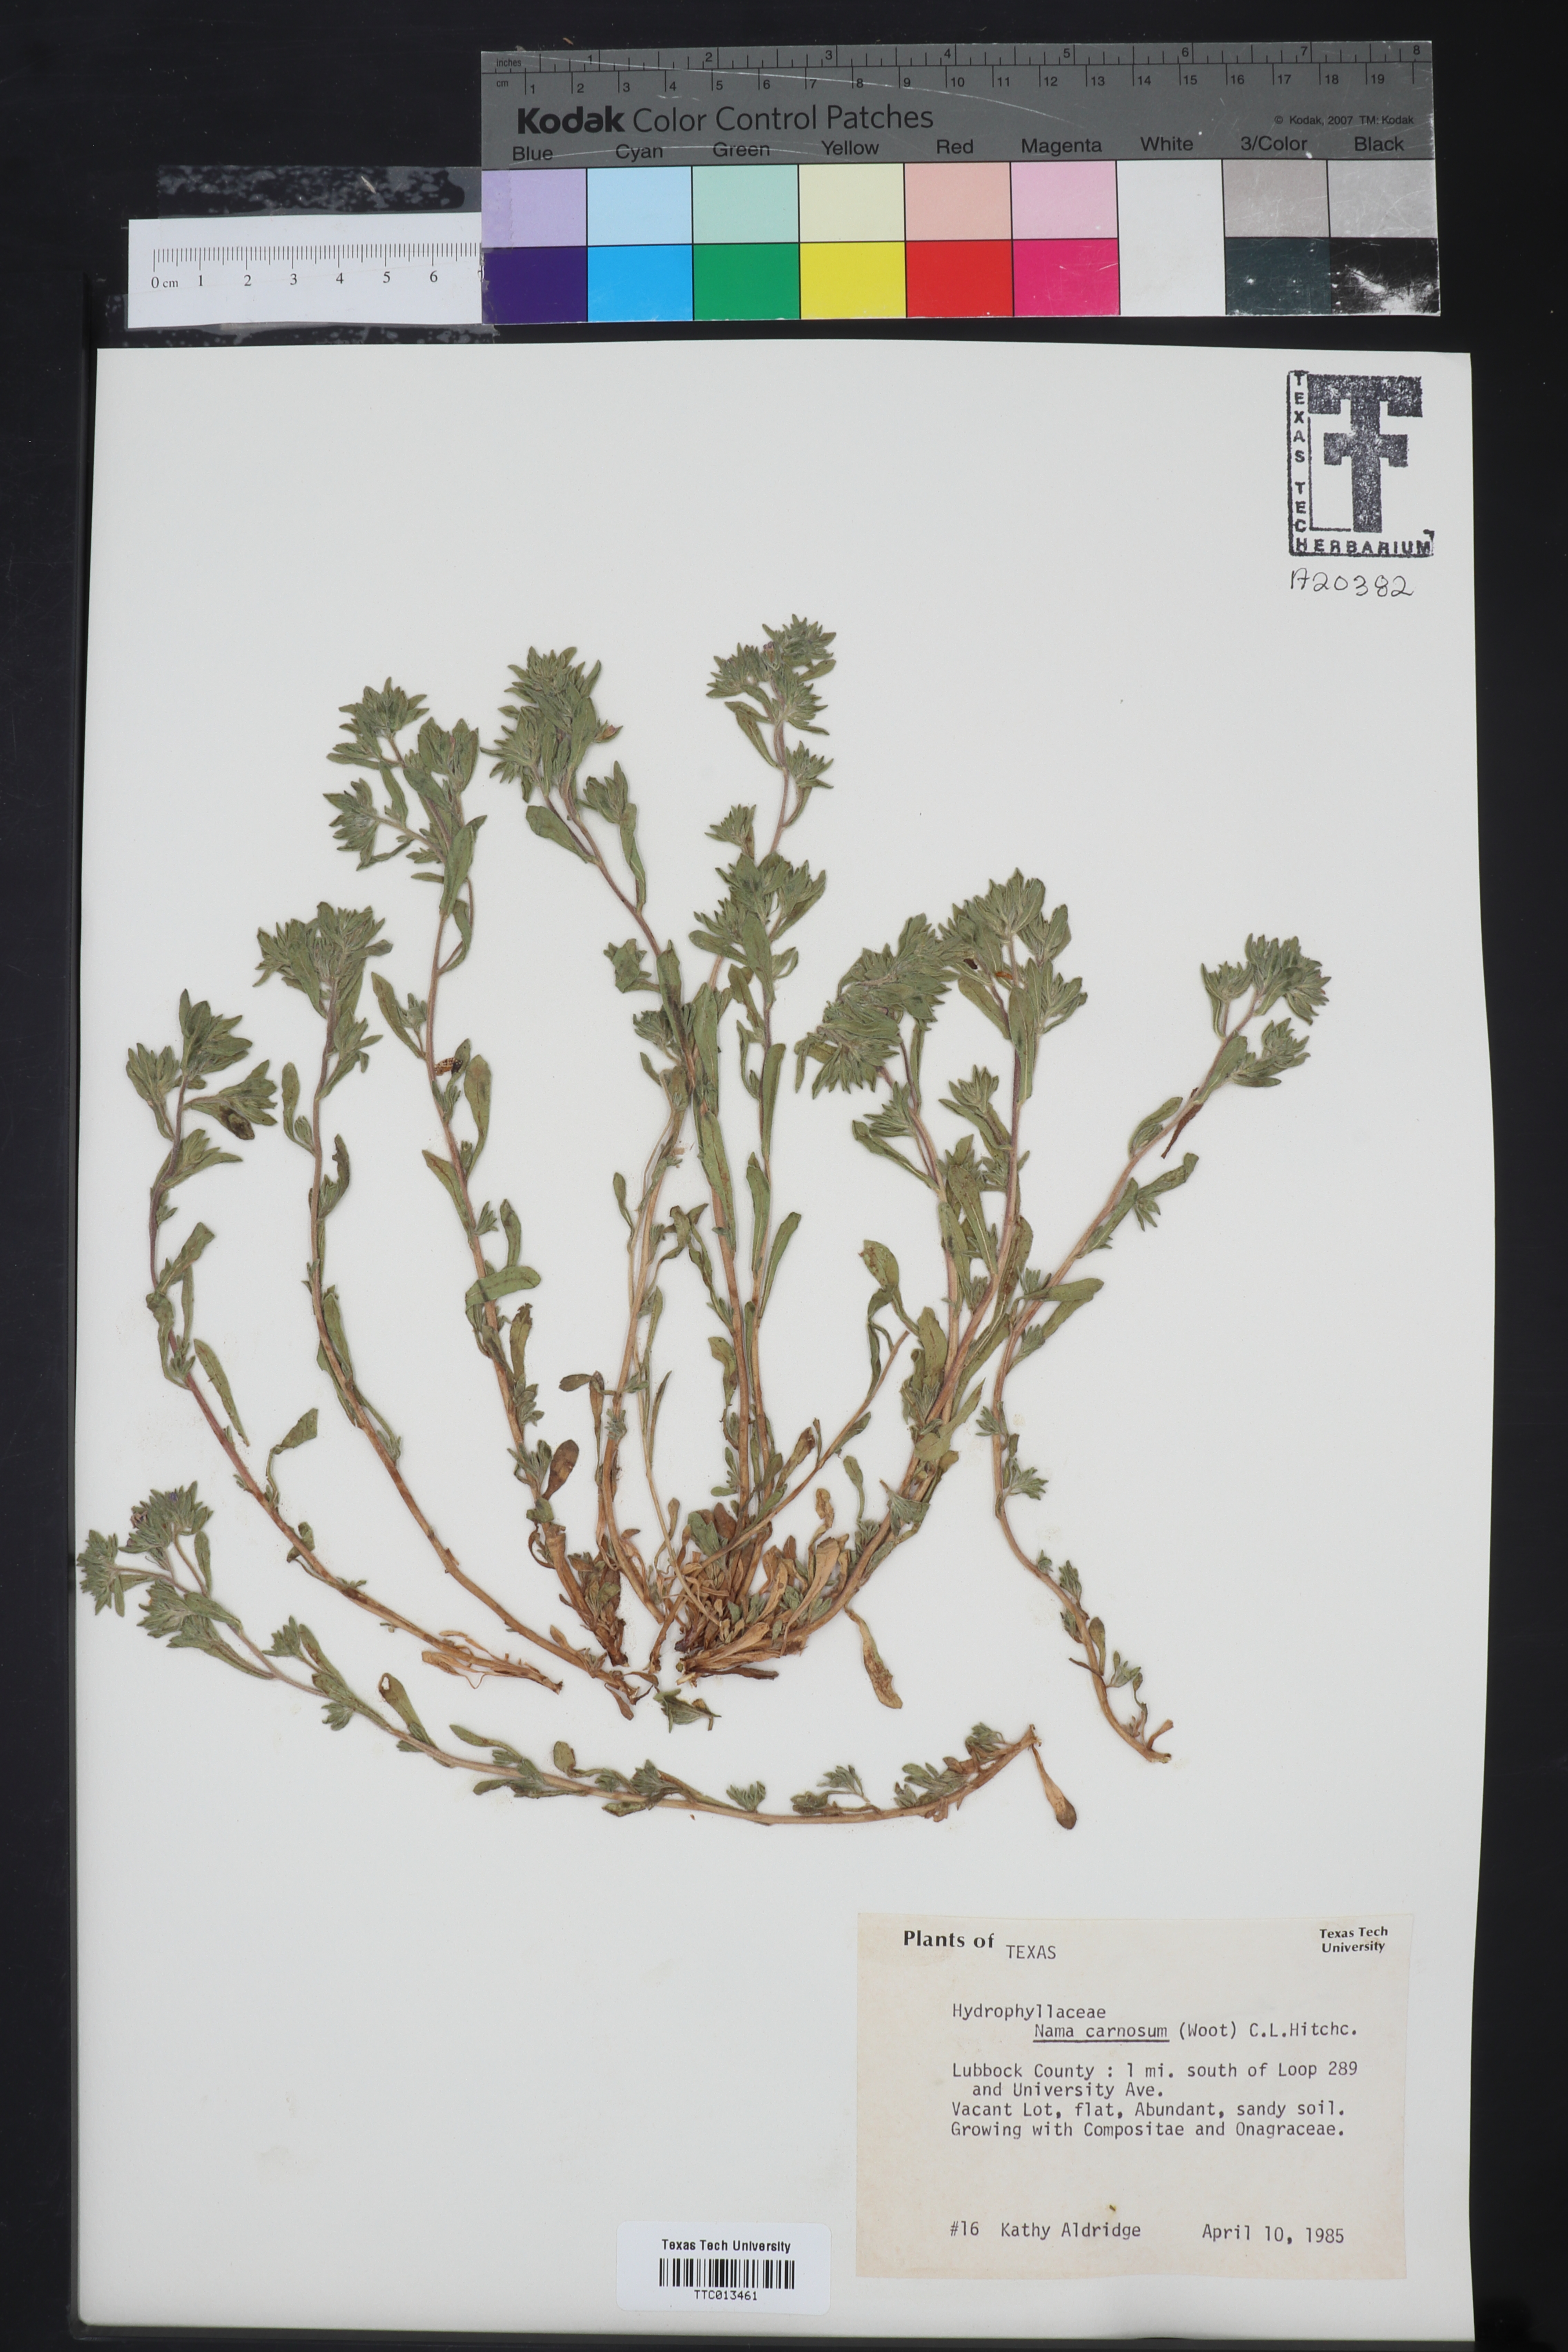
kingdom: Plantae
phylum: Tracheophyta
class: Magnoliopsida
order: Boraginales
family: Namaceae
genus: Andropus
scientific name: Andropus carnosus
